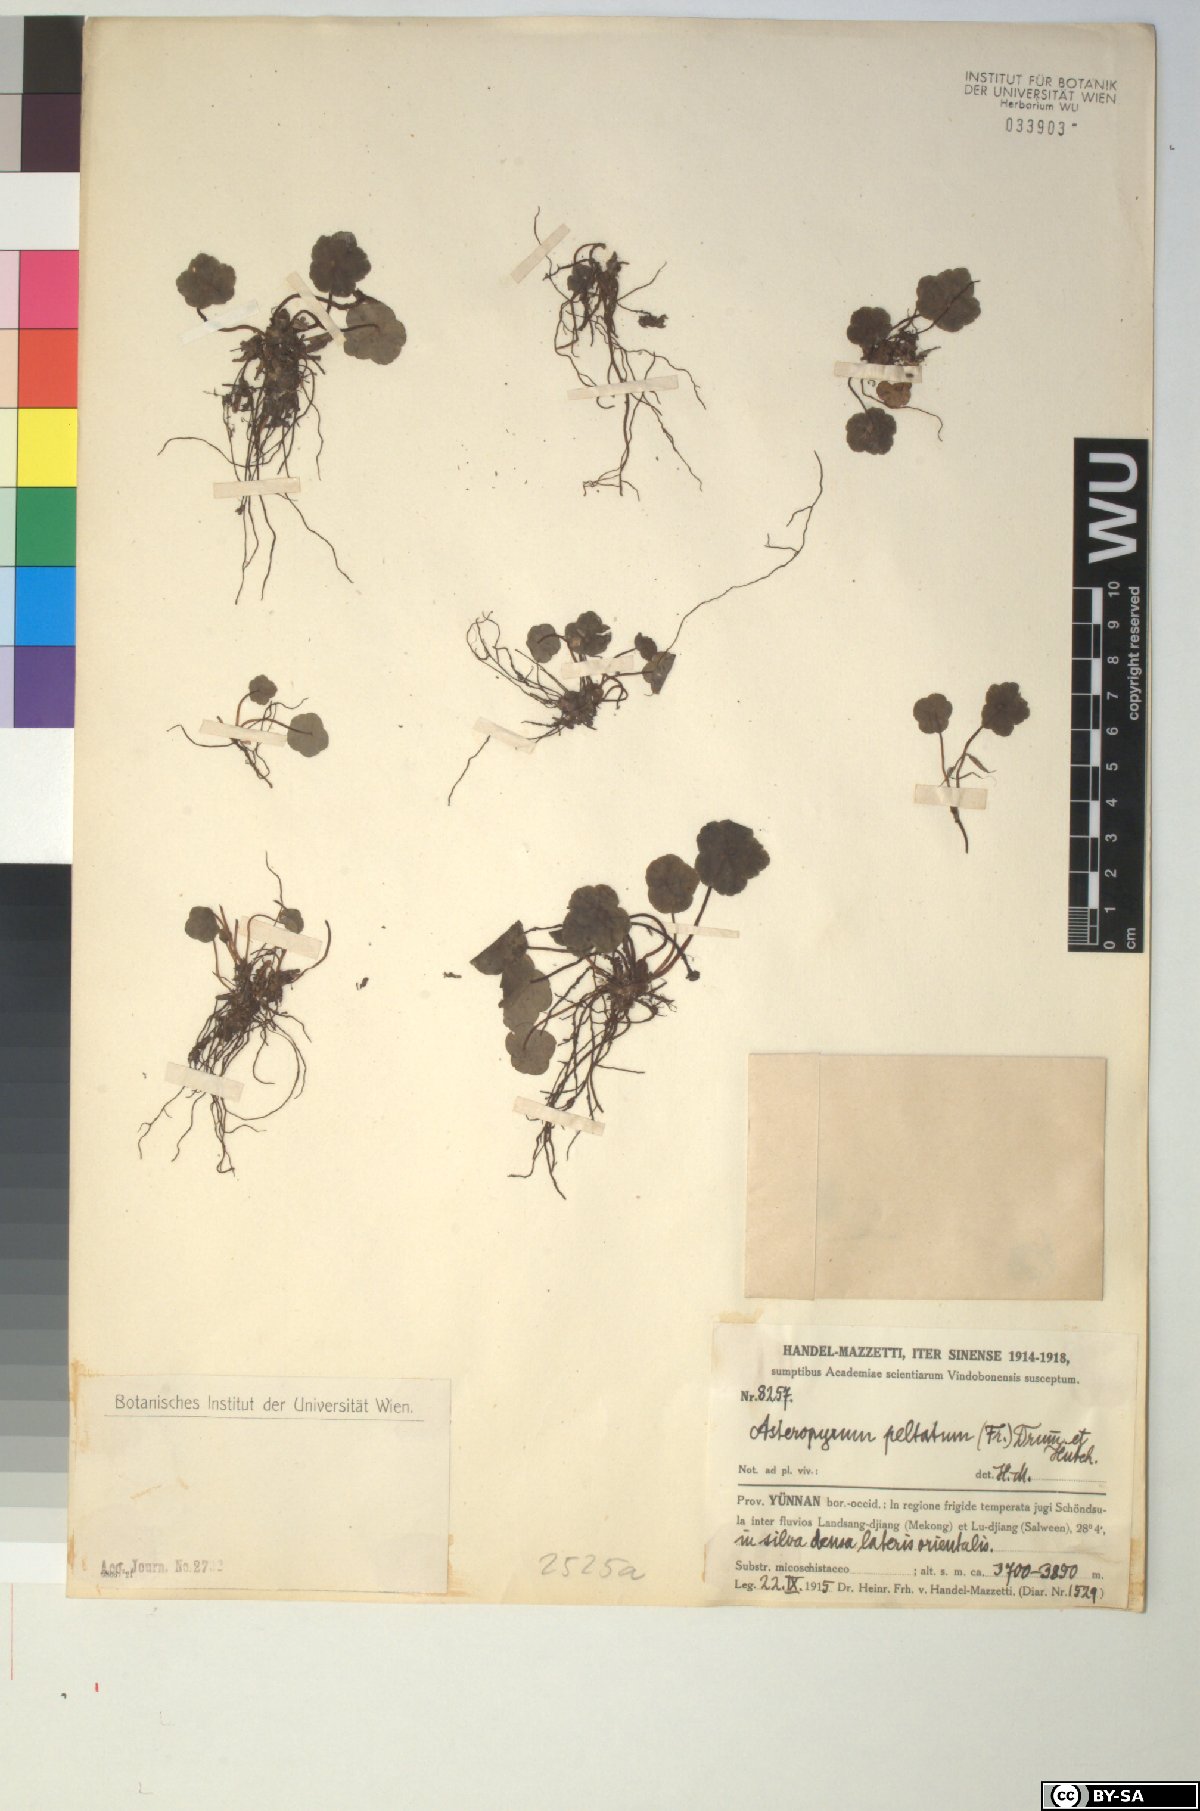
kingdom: Plantae
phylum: Tracheophyta
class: Magnoliopsida
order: Ranunculales
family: Ranunculaceae
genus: Asteropyrum
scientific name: Asteropyrum peltatum
